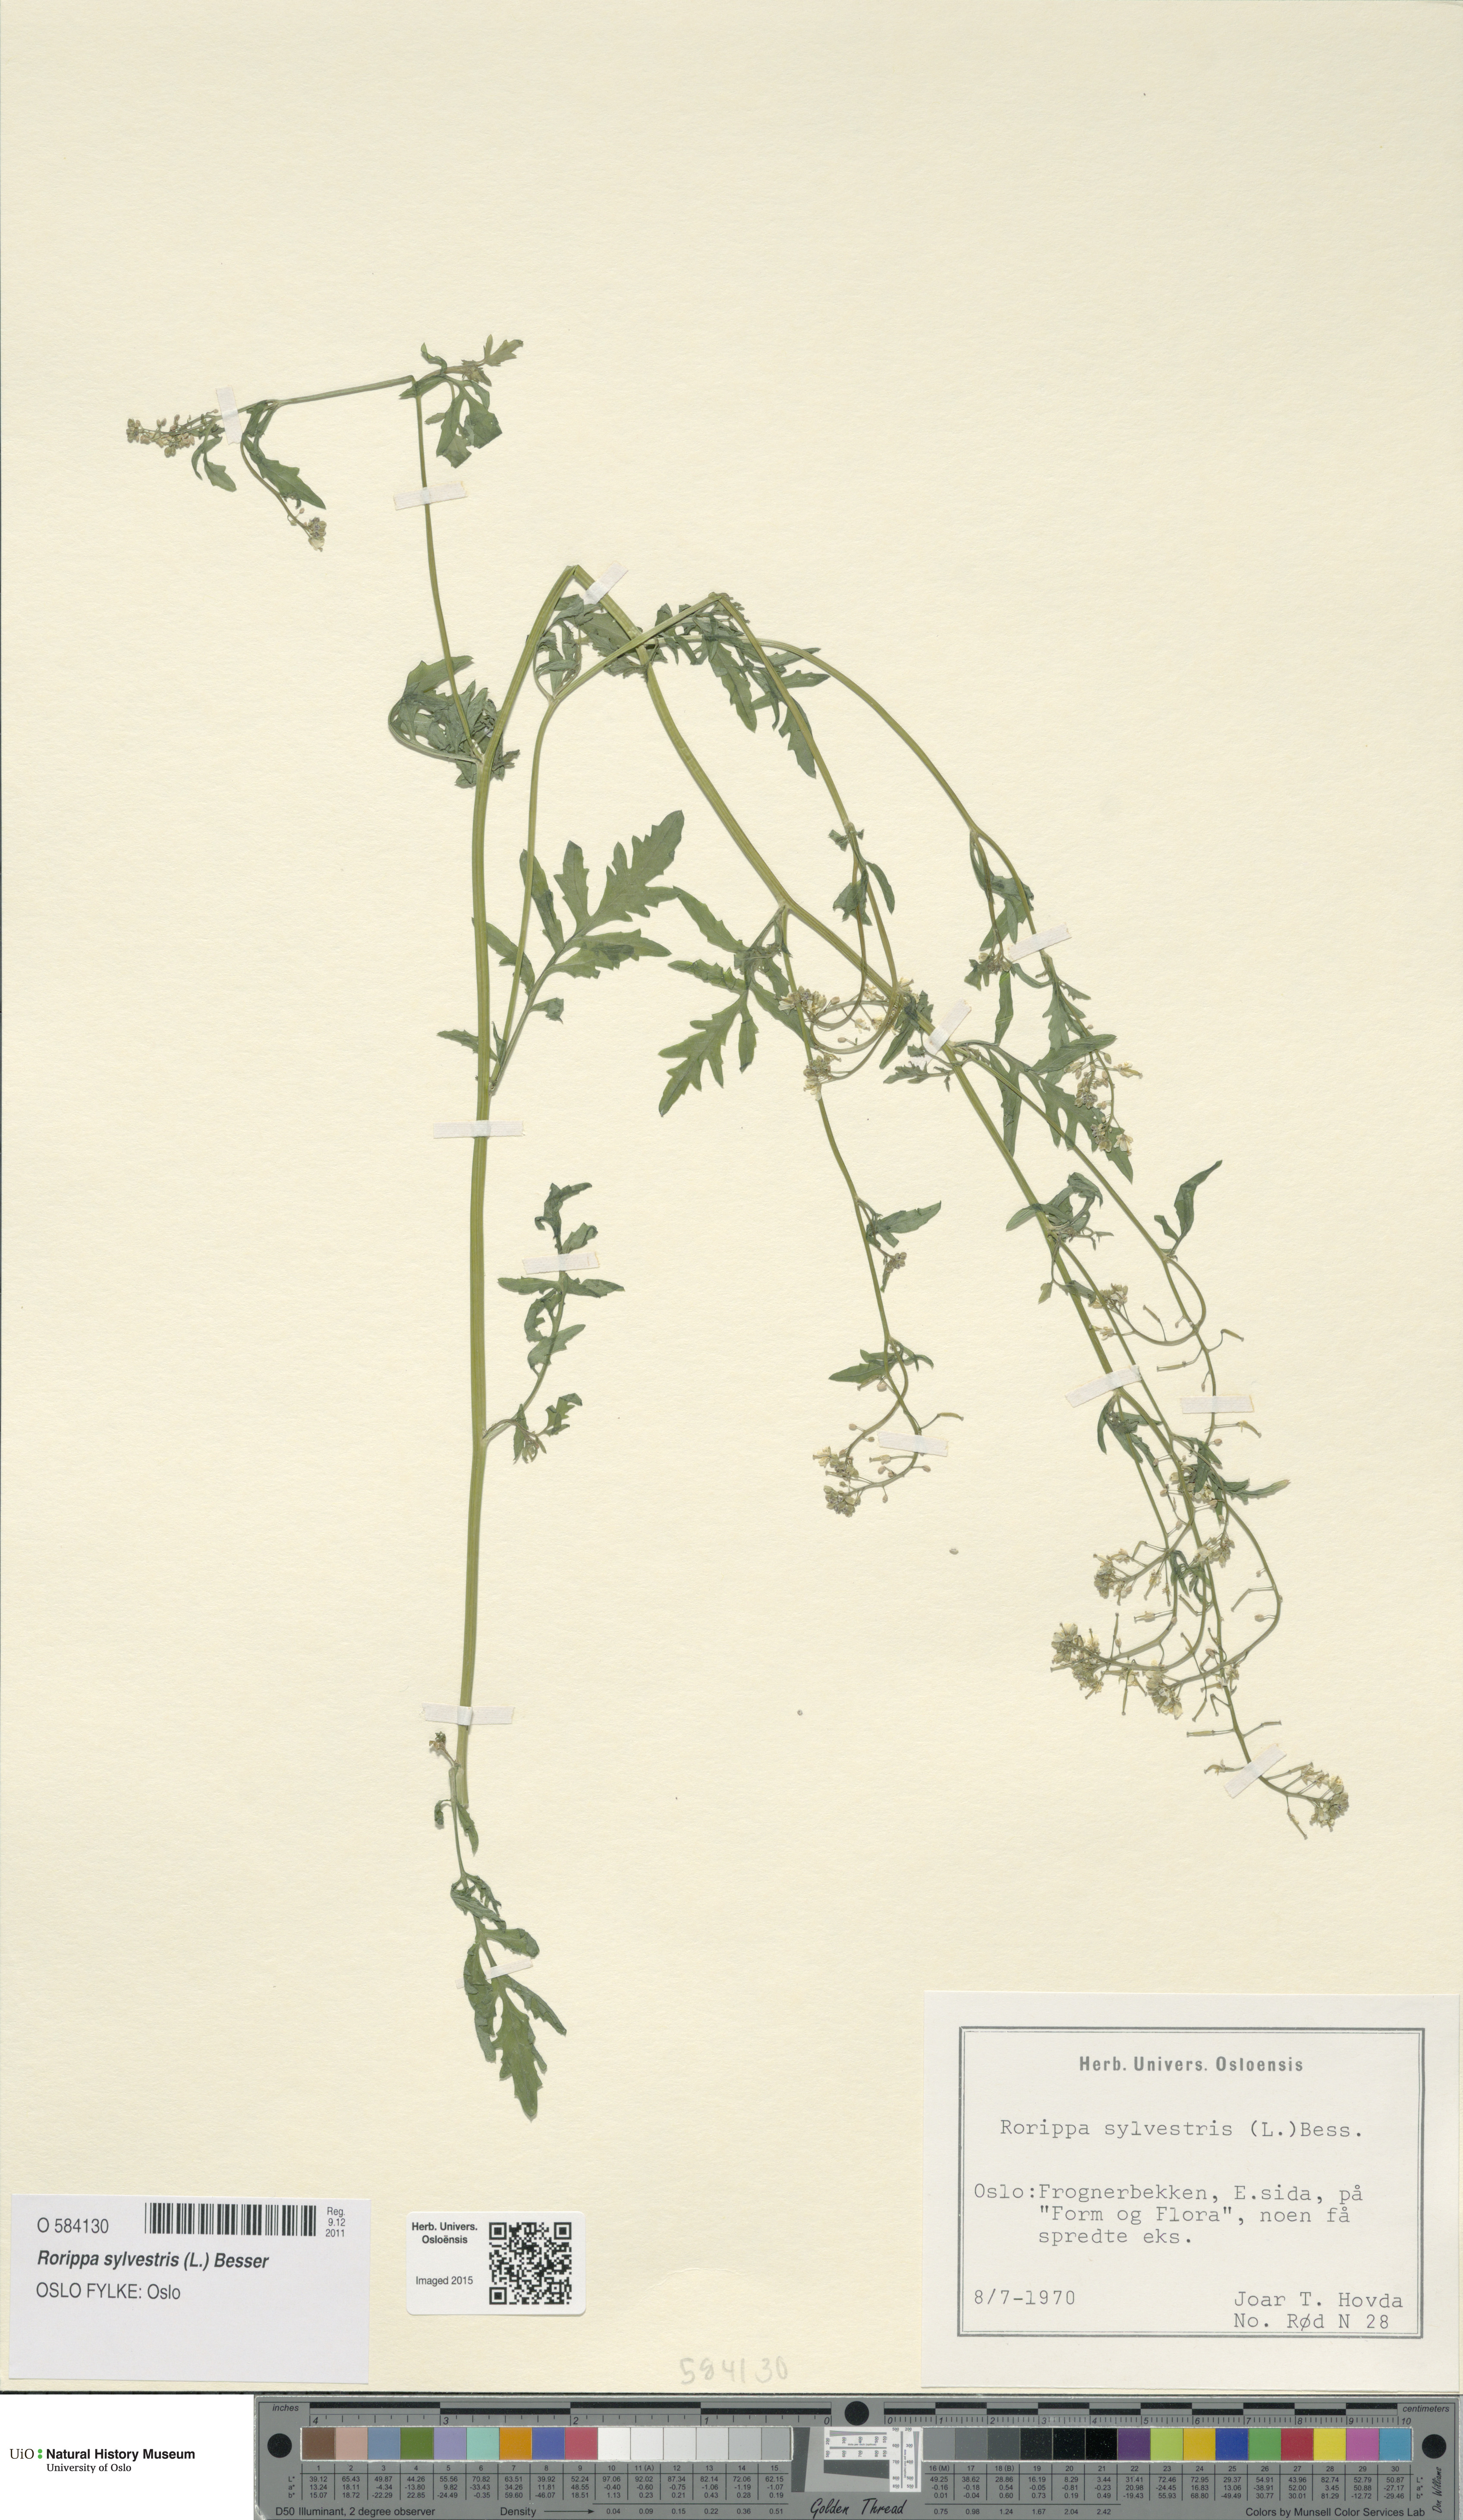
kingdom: Plantae
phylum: Tracheophyta
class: Magnoliopsida
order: Brassicales
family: Brassicaceae
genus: Rorippa
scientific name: Rorippa sylvestris
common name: Creeping yellowcress
